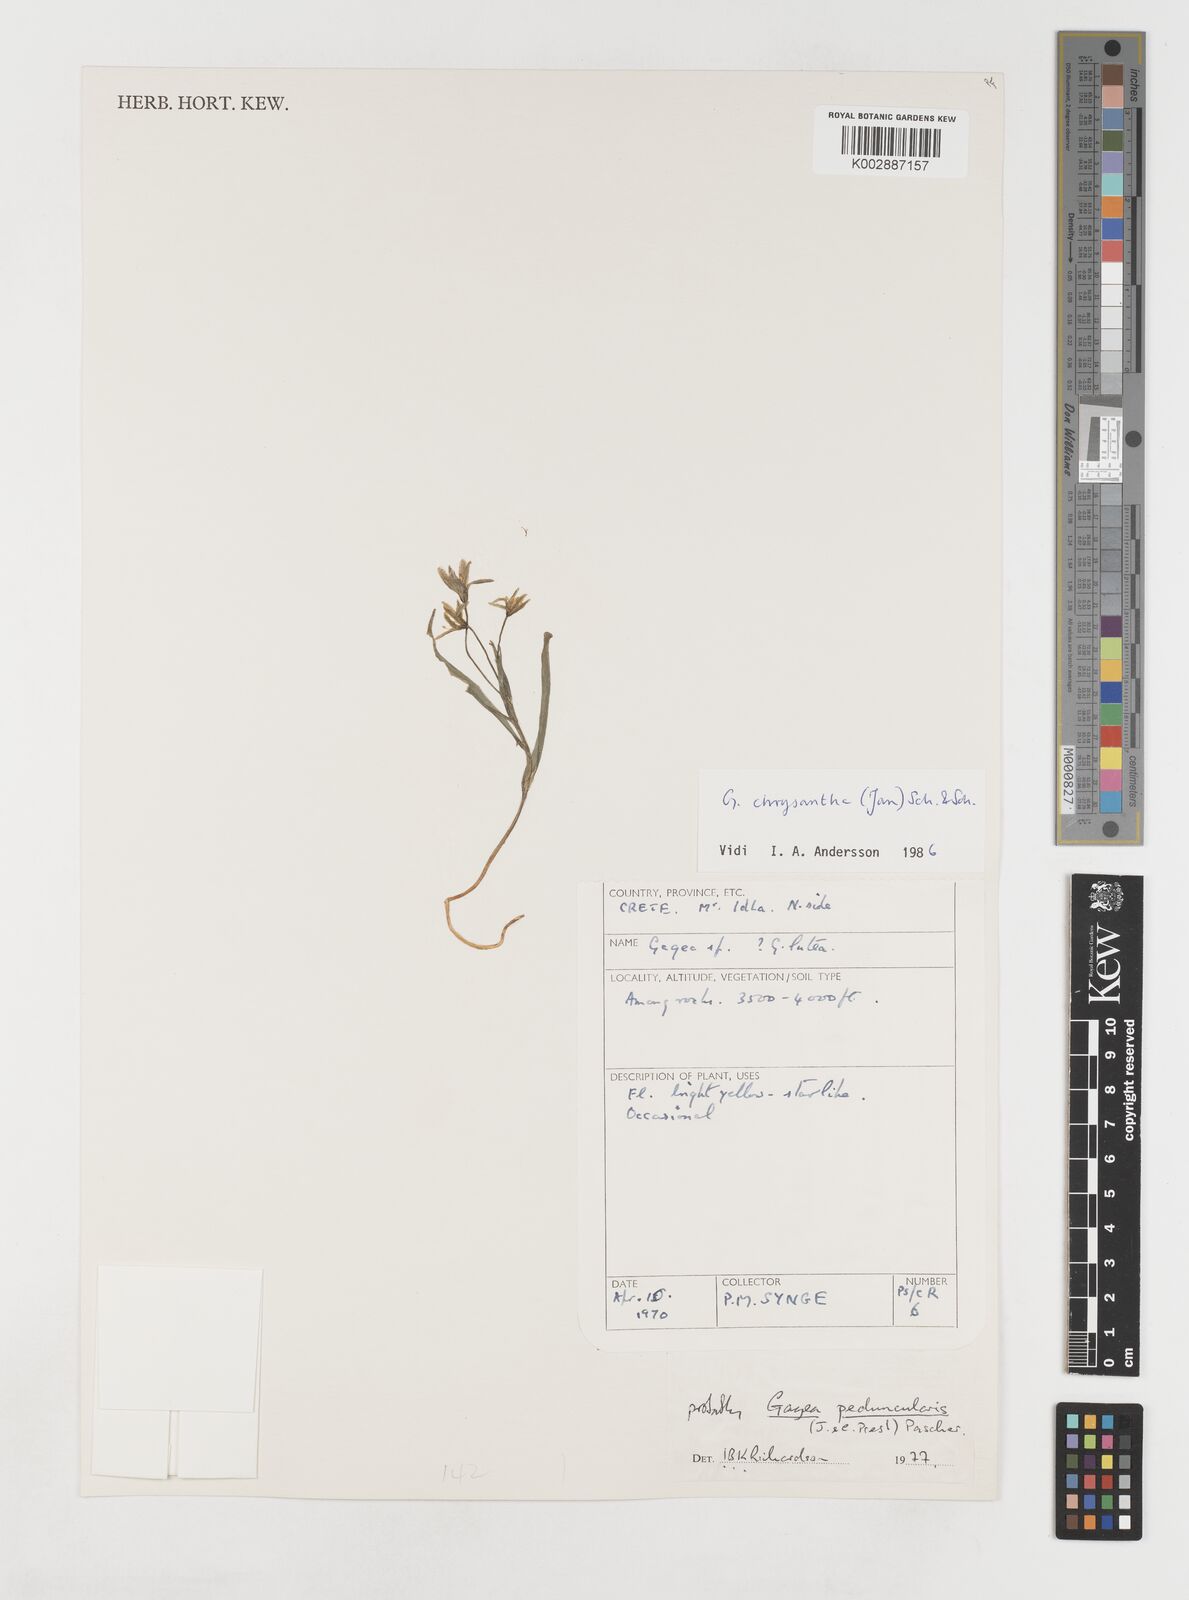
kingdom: Plantae
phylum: Tracheophyta
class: Liliopsida
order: Liliales
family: Liliaceae
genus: Gagea
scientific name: Gagea peduncularis
